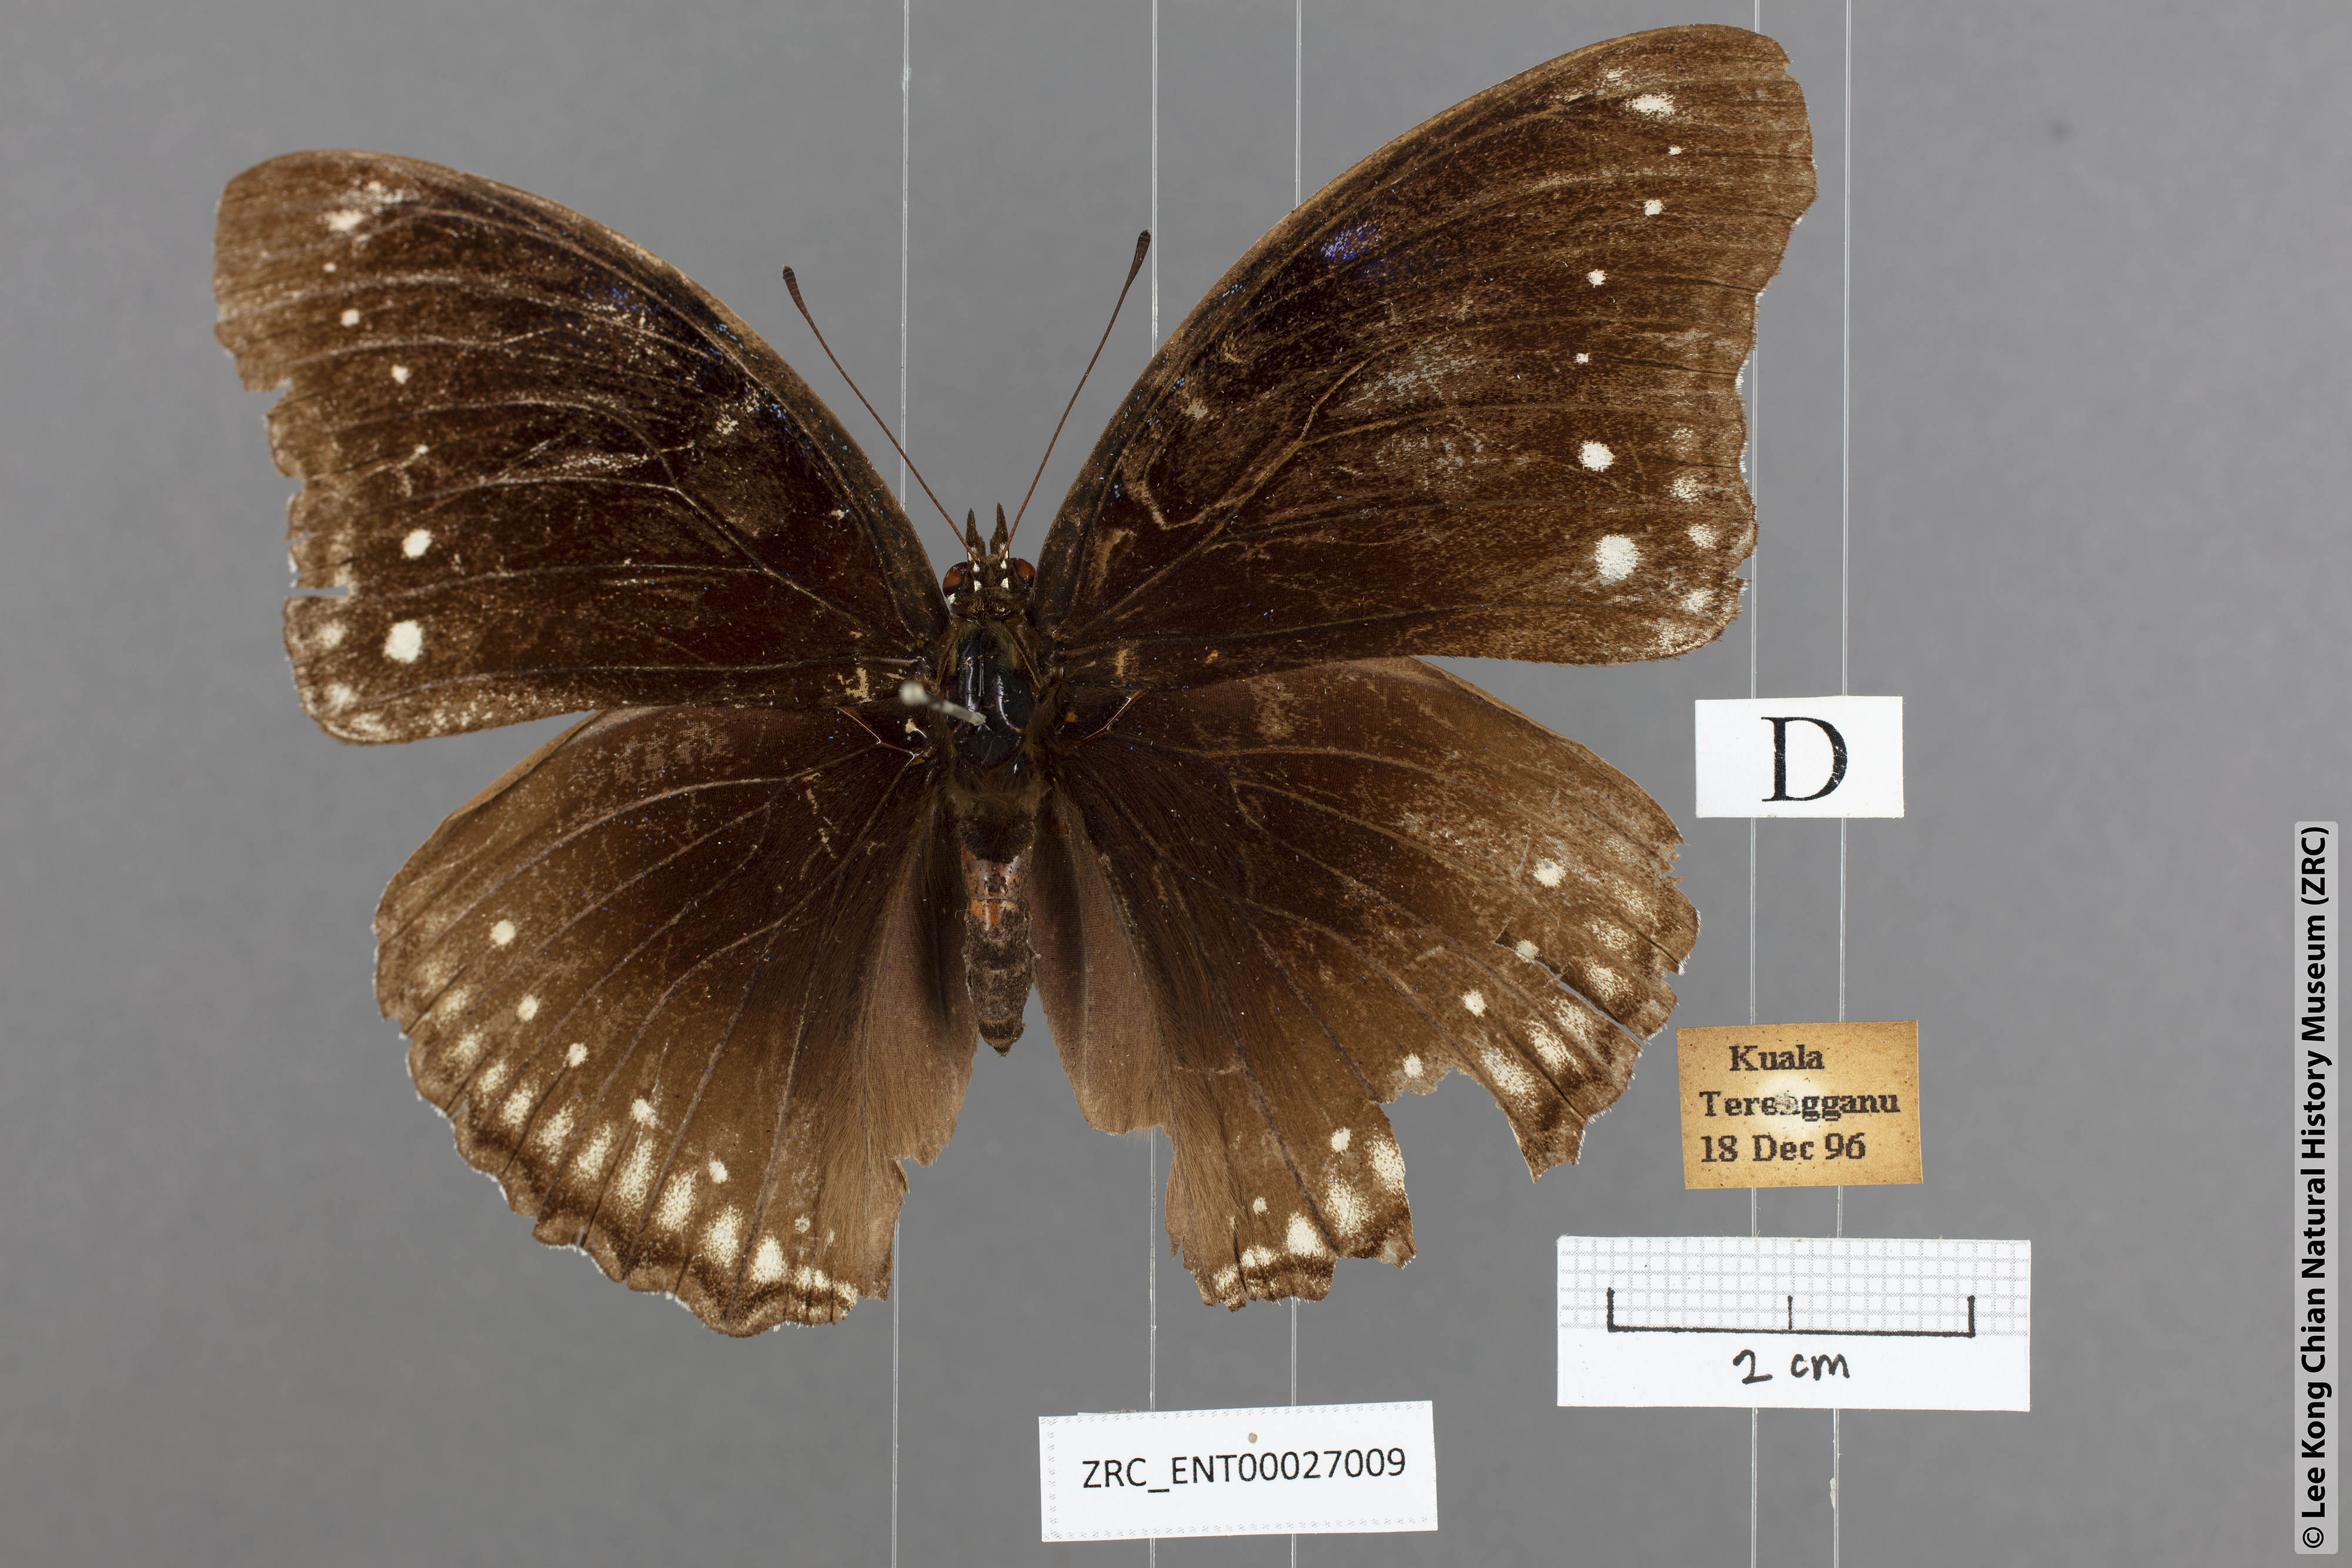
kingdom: Animalia
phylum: Arthropoda
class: Insecta
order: Lepidoptera
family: Nymphalidae
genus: Hypolimnas
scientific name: Hypolimnas bolina
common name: Great eggfly
